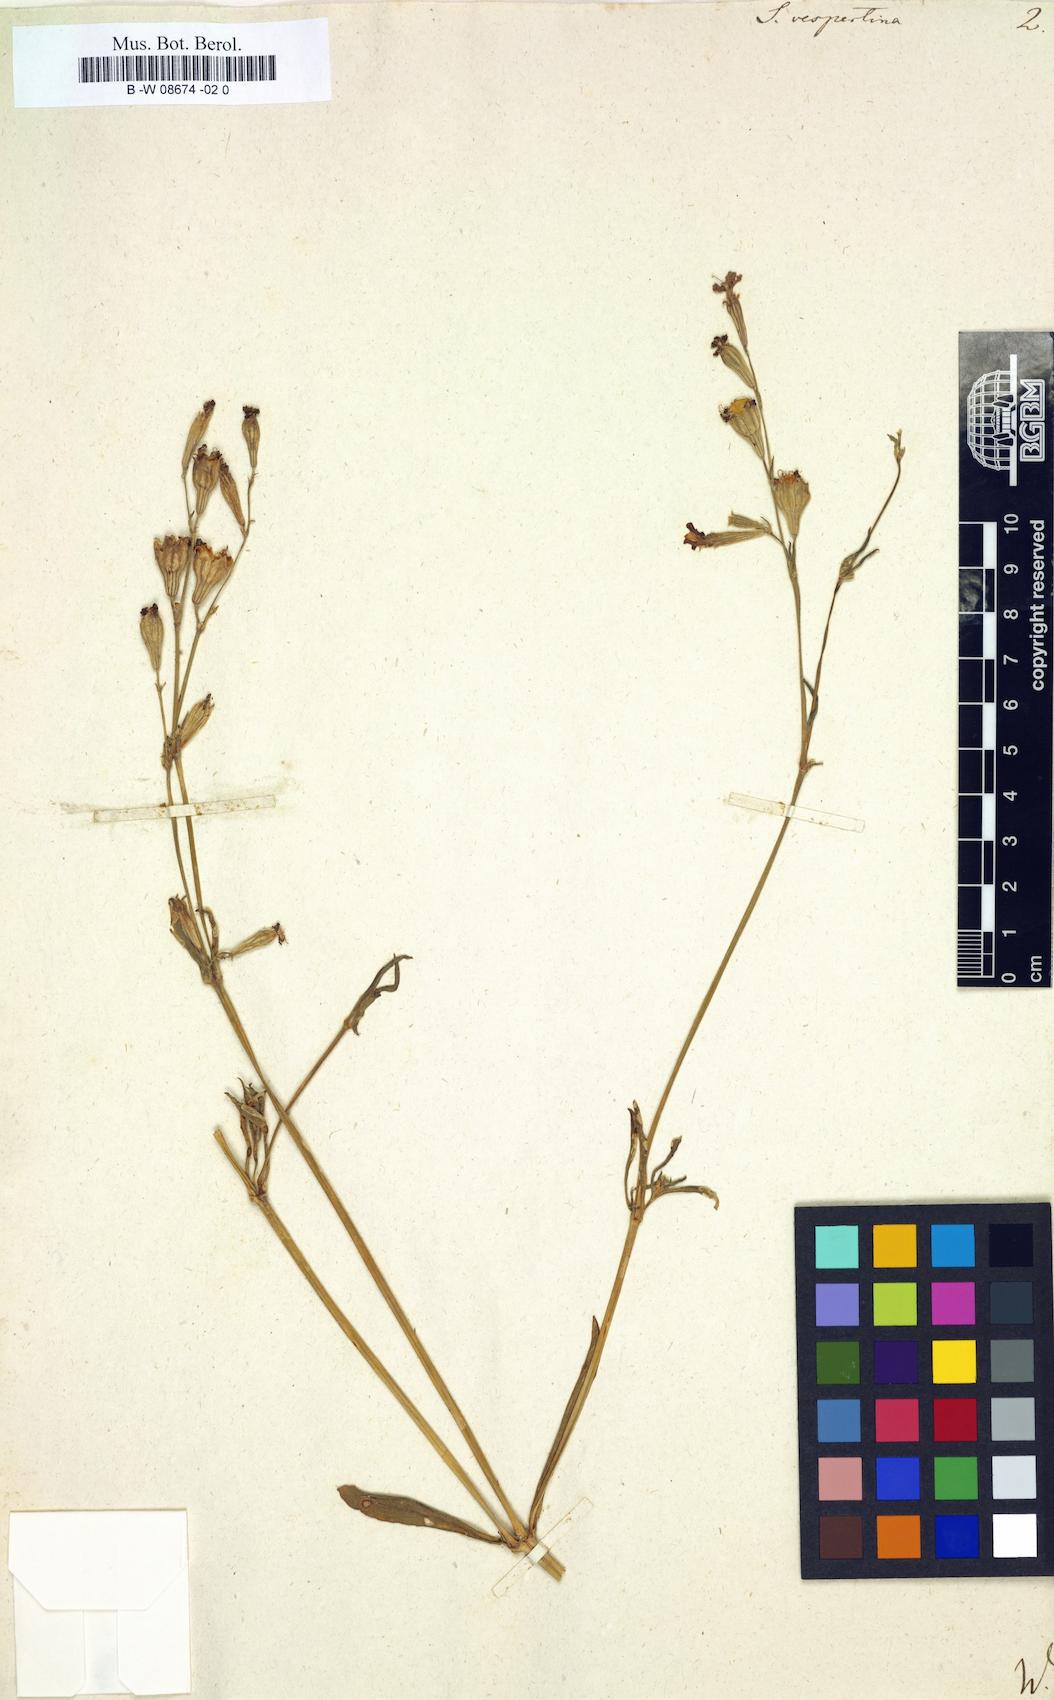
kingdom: Plantae
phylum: Tracheophyta
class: Magnoliopsida
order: Caryophyllales
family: Caryophyllaceae
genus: Silene
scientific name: Silene bellidifolia
